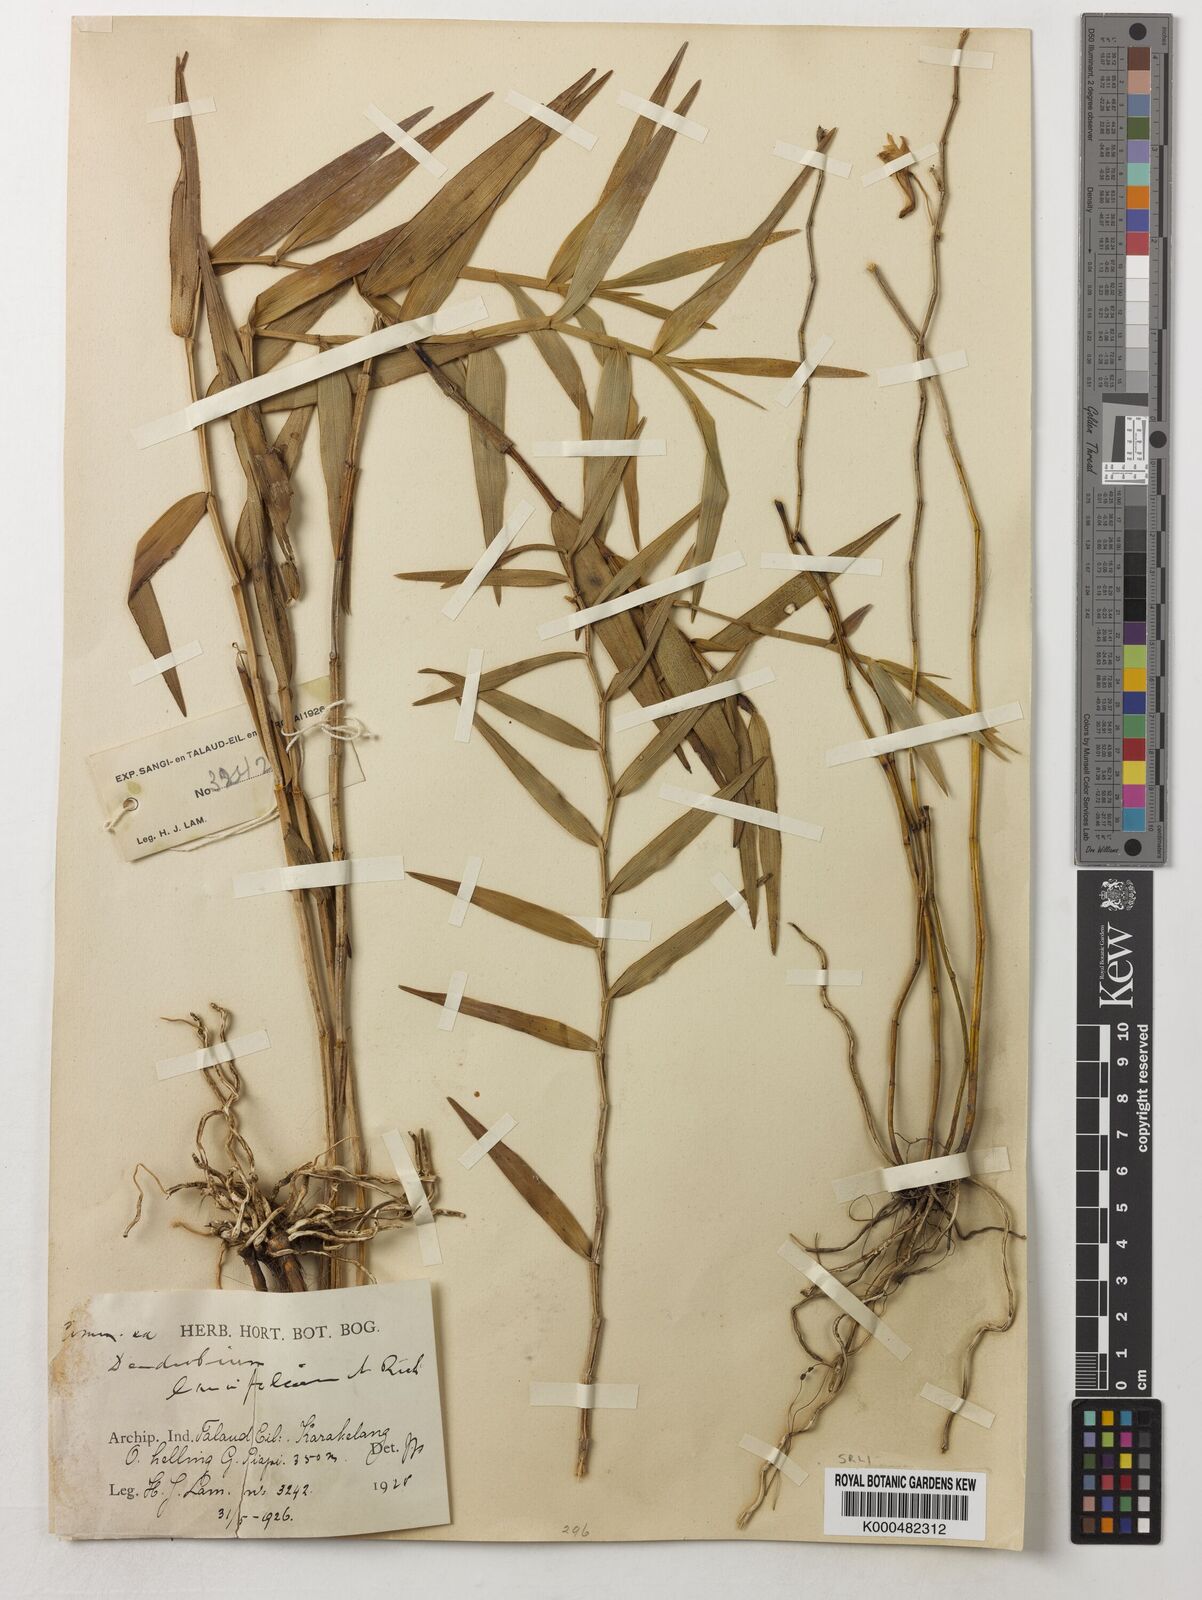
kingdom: Plantae
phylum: Tracheophyta
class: Liliopsida
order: Asparagales
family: Orchidaceae
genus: Dendrobium
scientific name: Dendrobium lanceolatum
